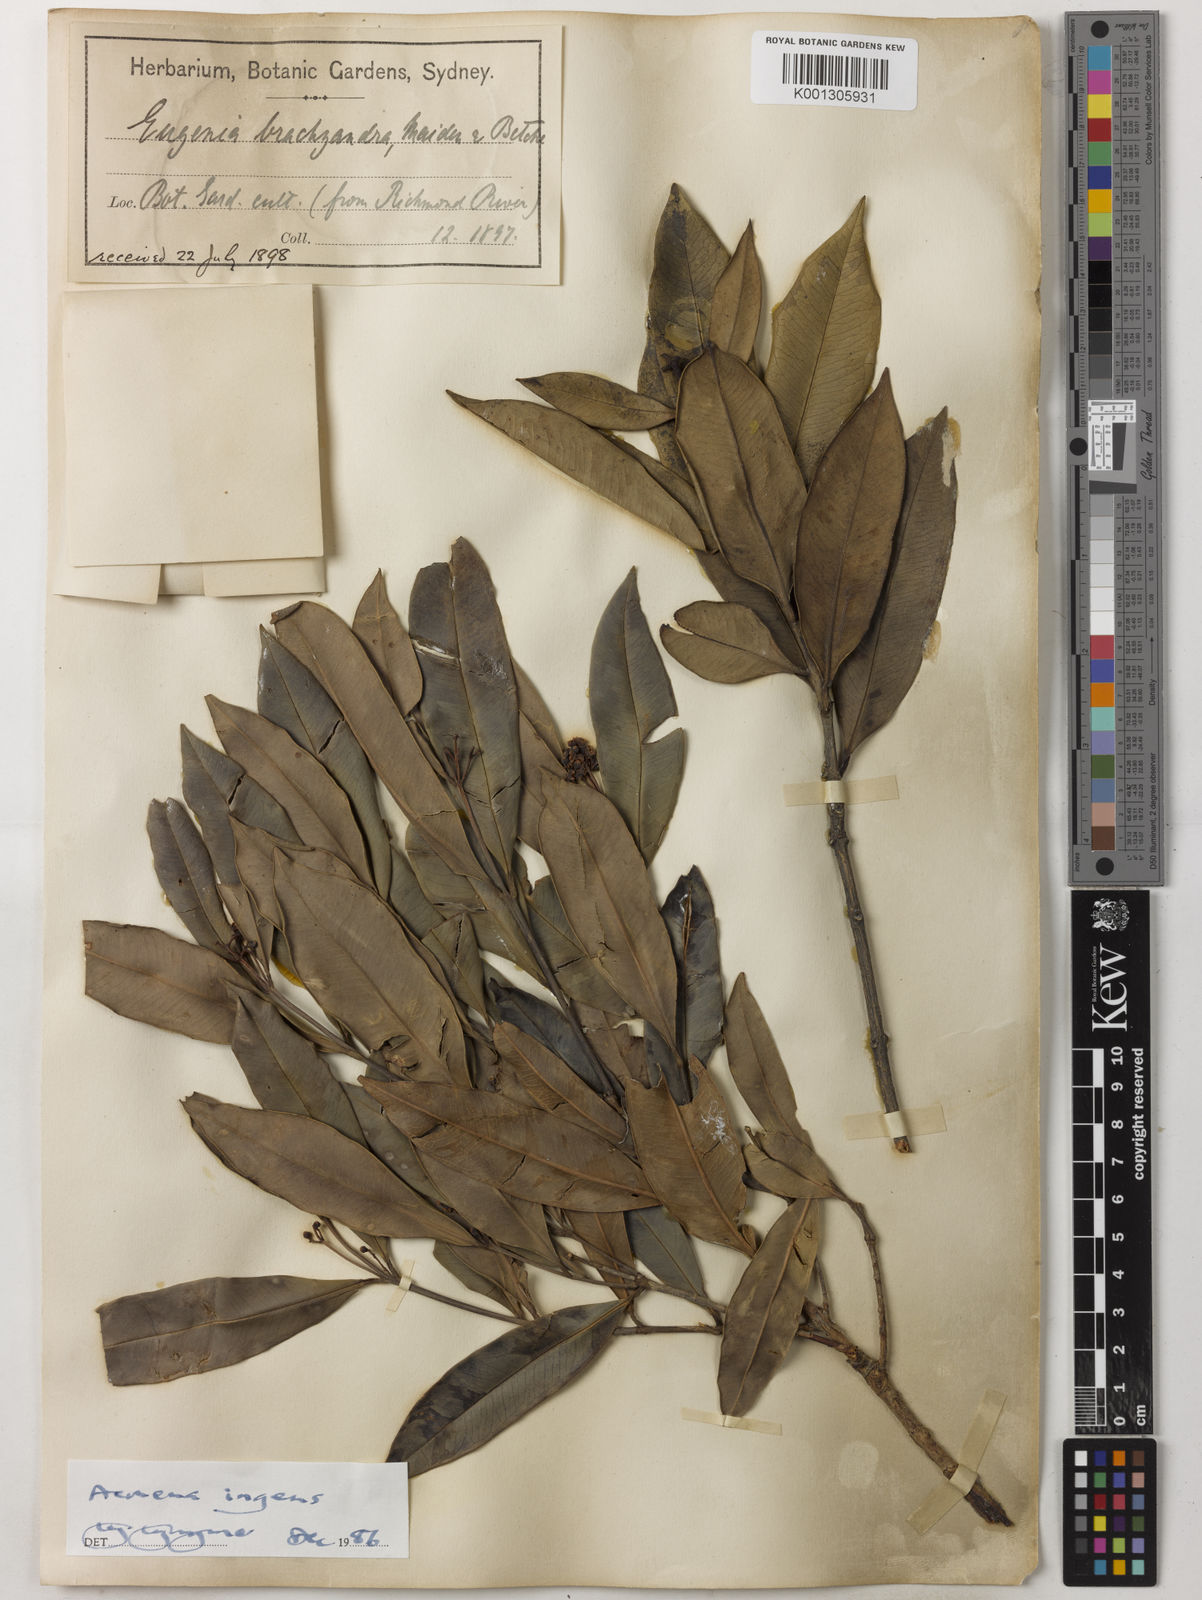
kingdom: Plantae
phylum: Tracheophyta
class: Magnoliopsida
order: Myrtales
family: Myrtaceae
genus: Syzygium
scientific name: Syzygium ingens
